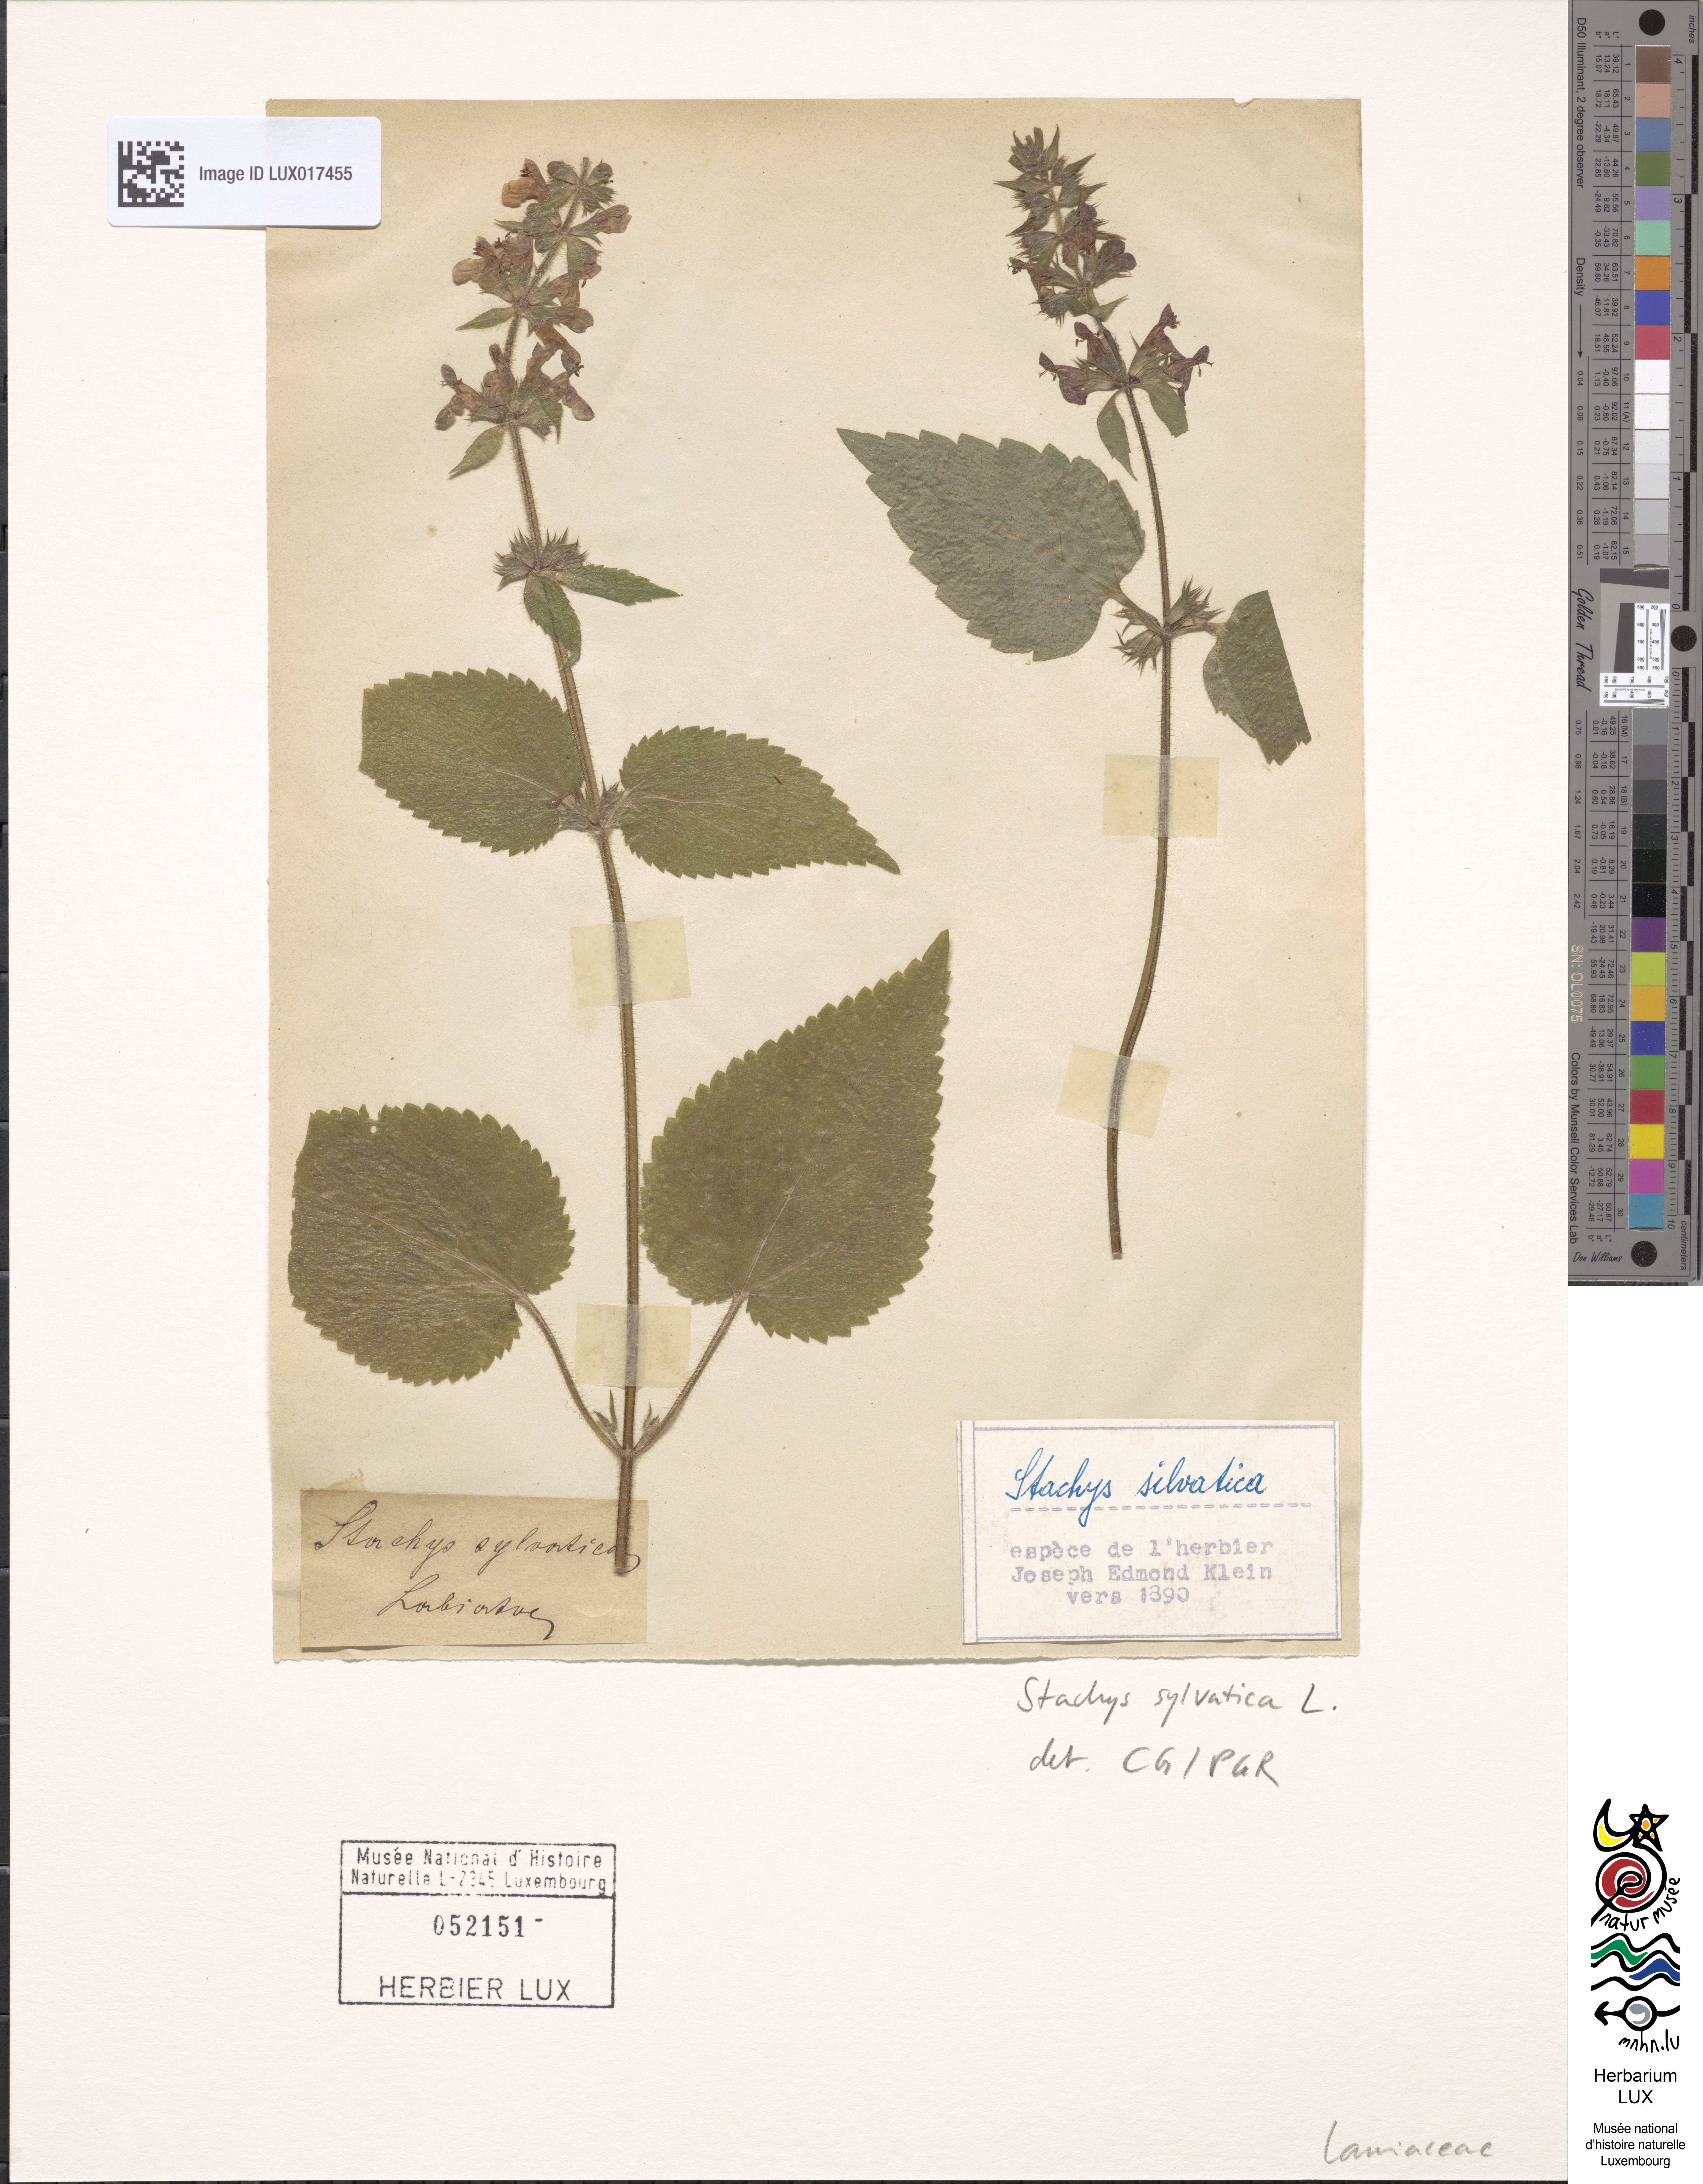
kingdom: Plantae
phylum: Tracheophyta
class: Magnoliopsida
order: Lamiales
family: Lamiaceae
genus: Stachys
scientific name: Stachys sylvatica
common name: Hedge woundwort
